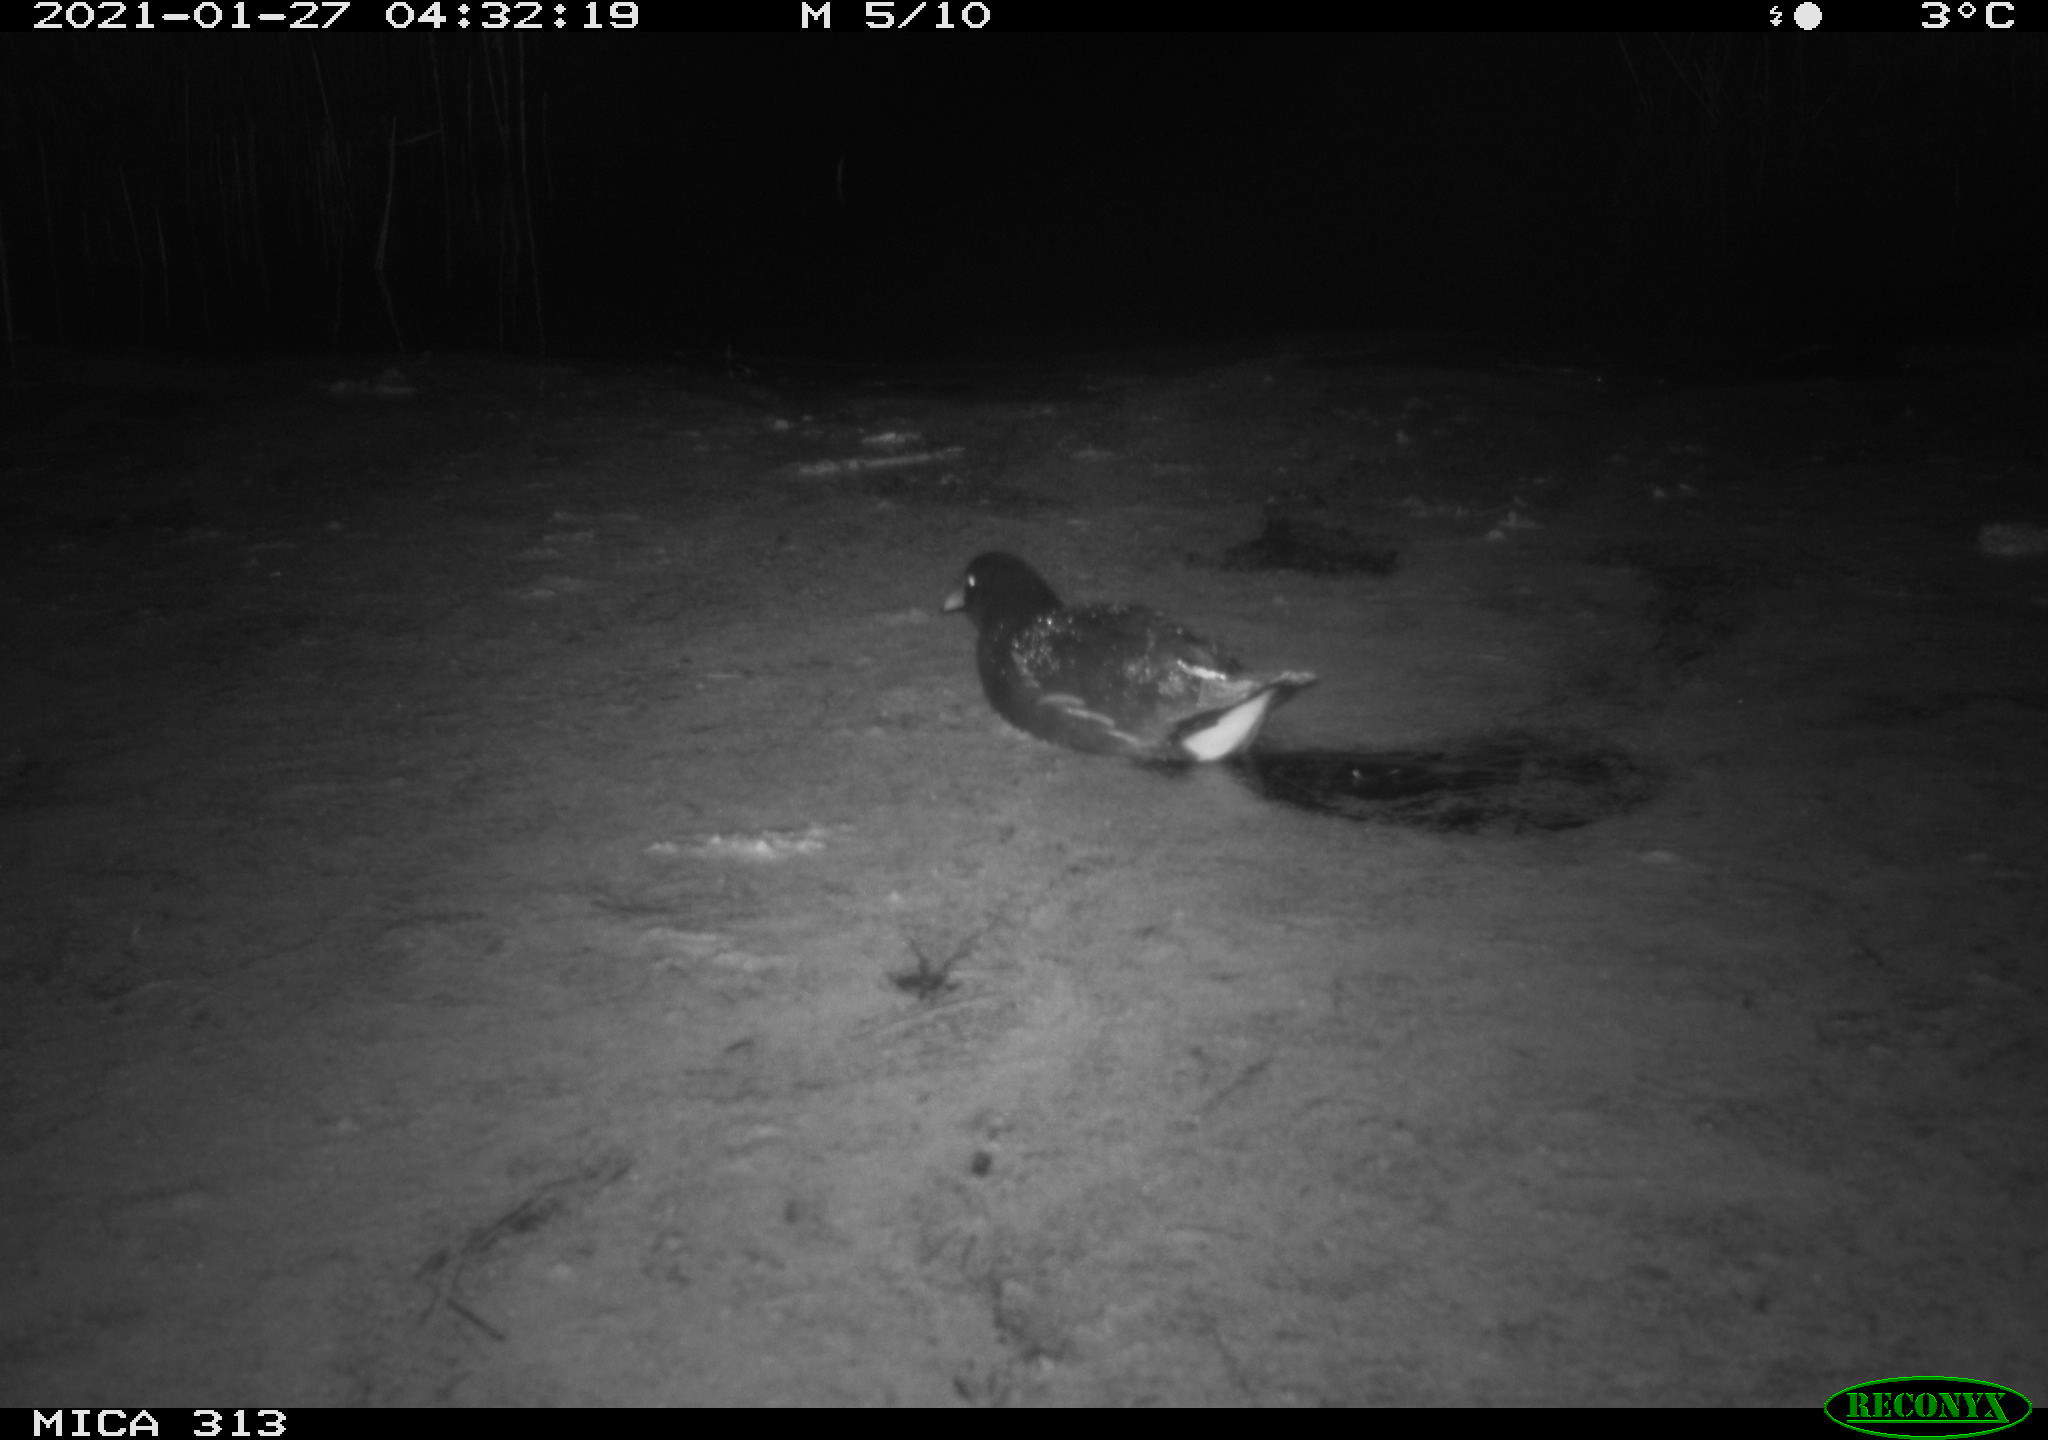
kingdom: Animalia
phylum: Chordata
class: Aves
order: Anseriformes
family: Anatidae
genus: Anas
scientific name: Anas platyrhynchos
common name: Mallard
